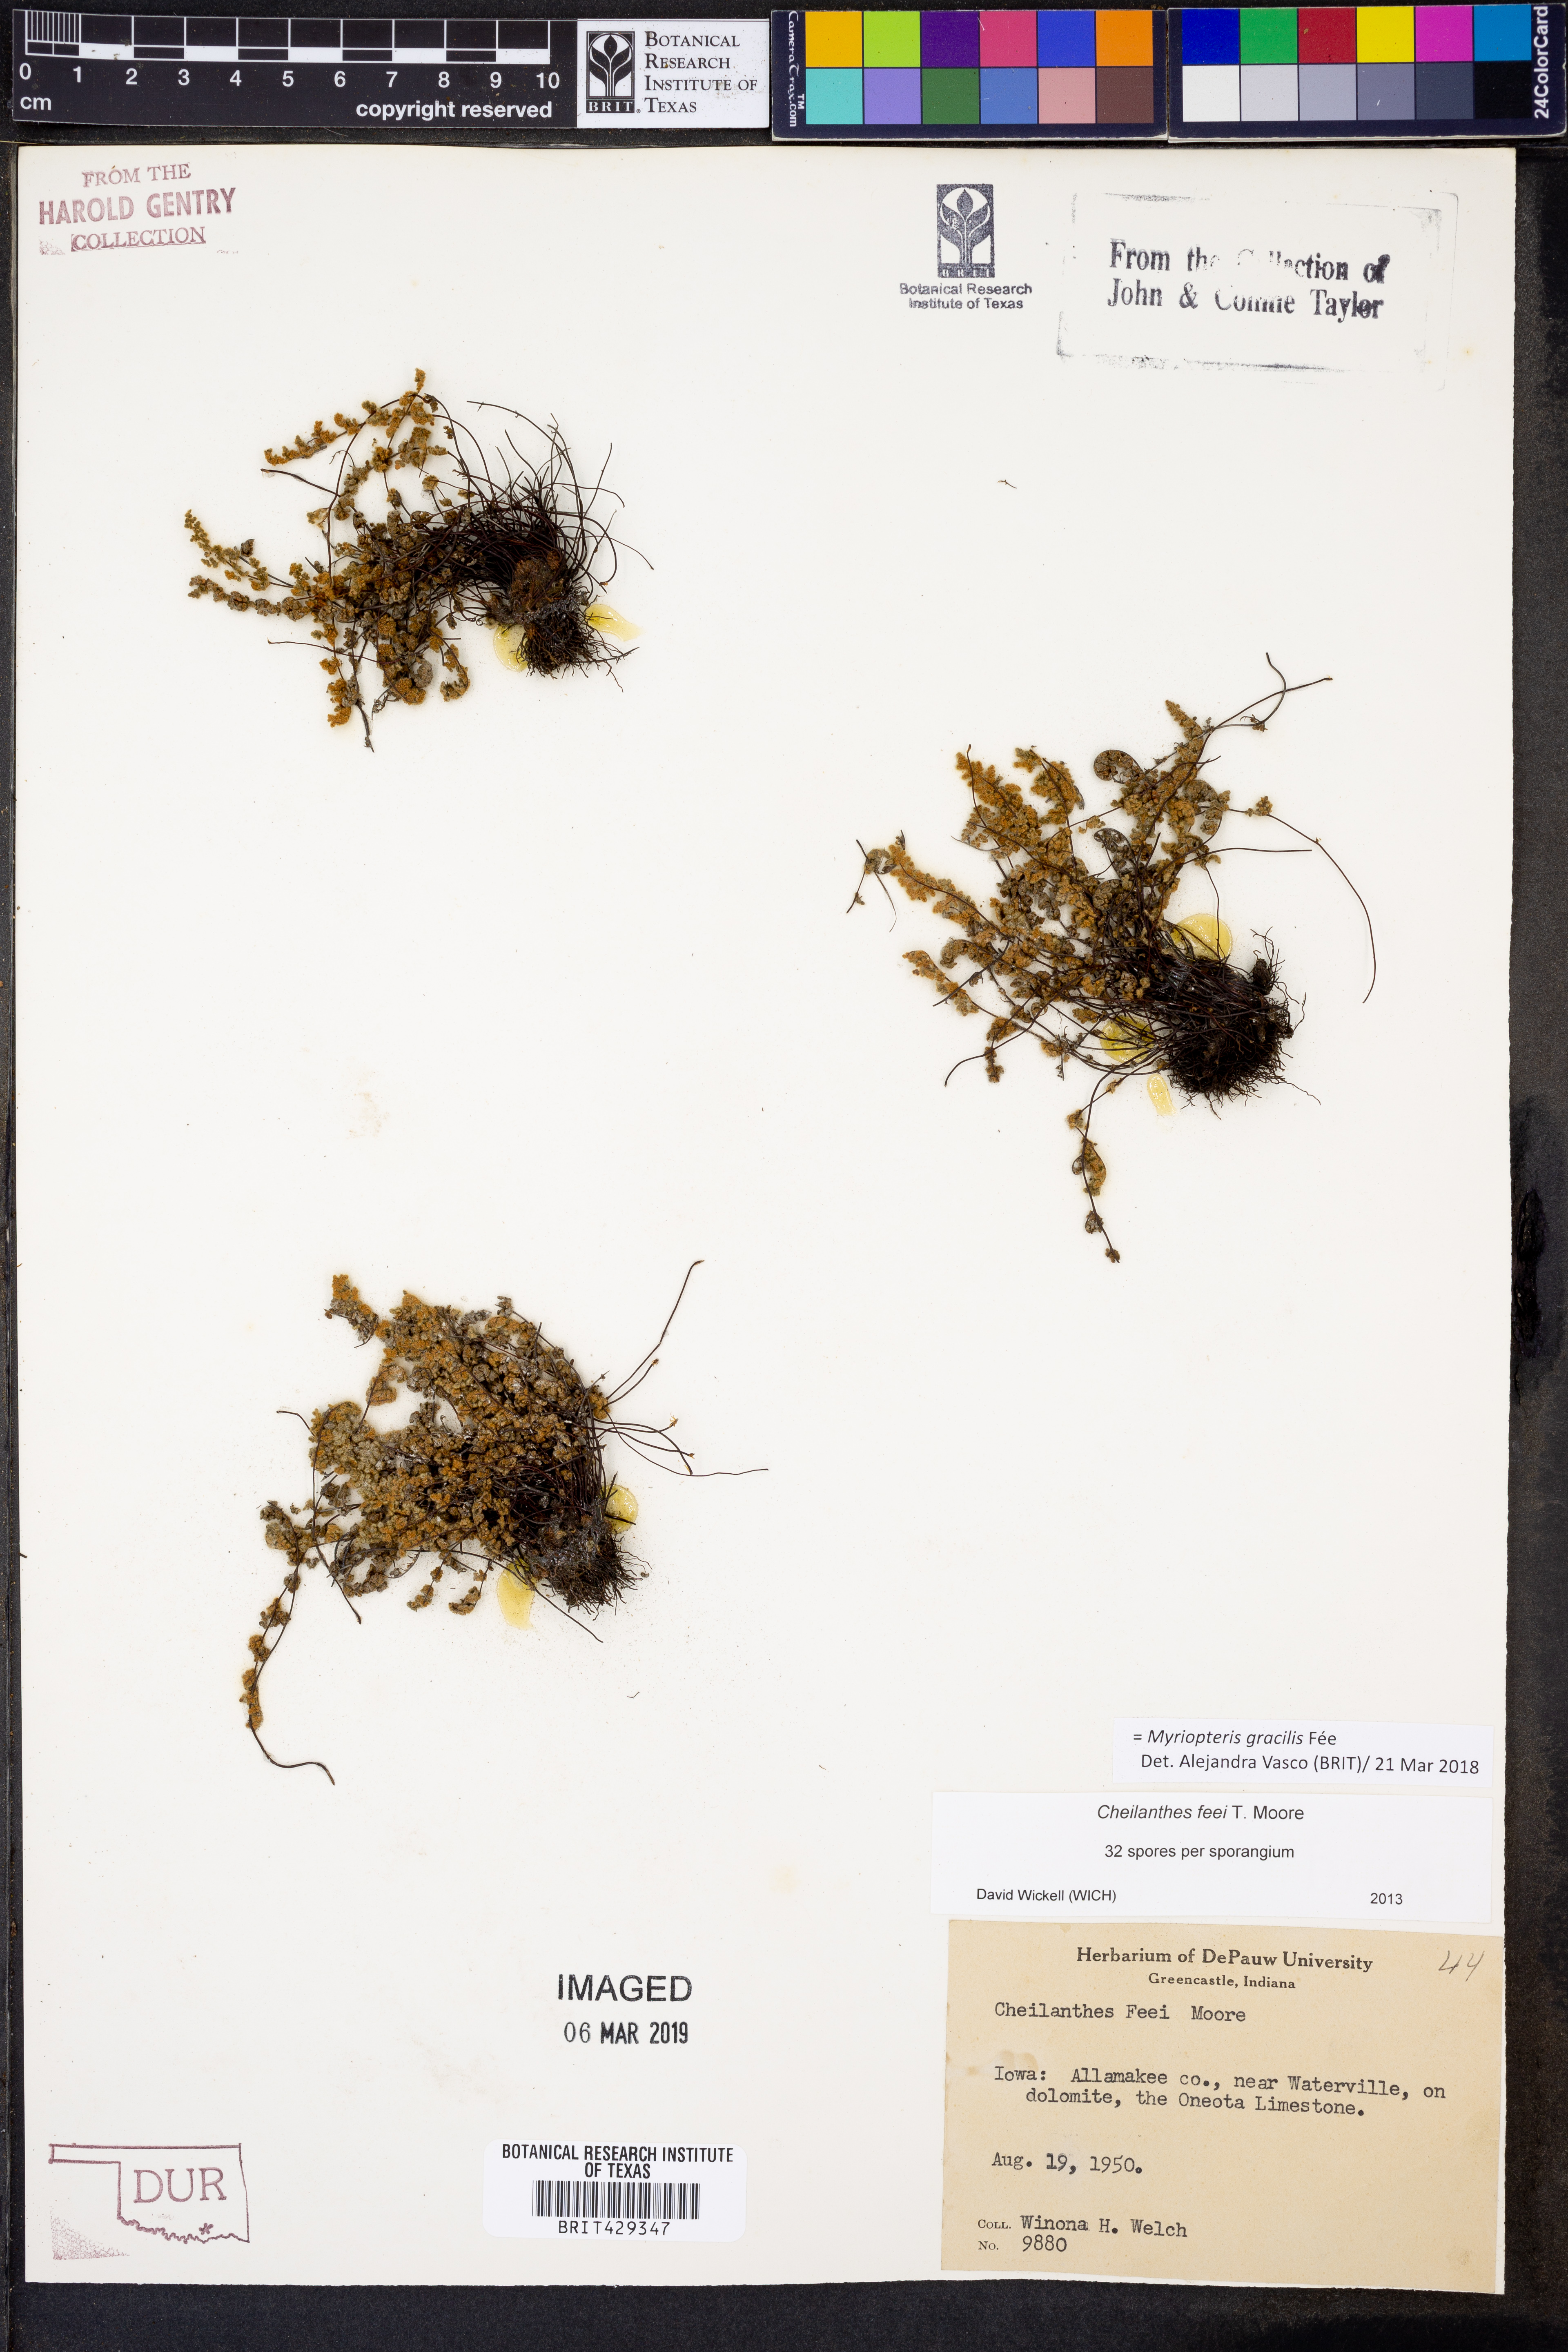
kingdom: Plantae
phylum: Tracheophyta
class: Polypodiopsida
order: Polypodiales
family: Pteridaceae
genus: Myriopteris
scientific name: Myriopteris gracilis
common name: Fee's lip fern
